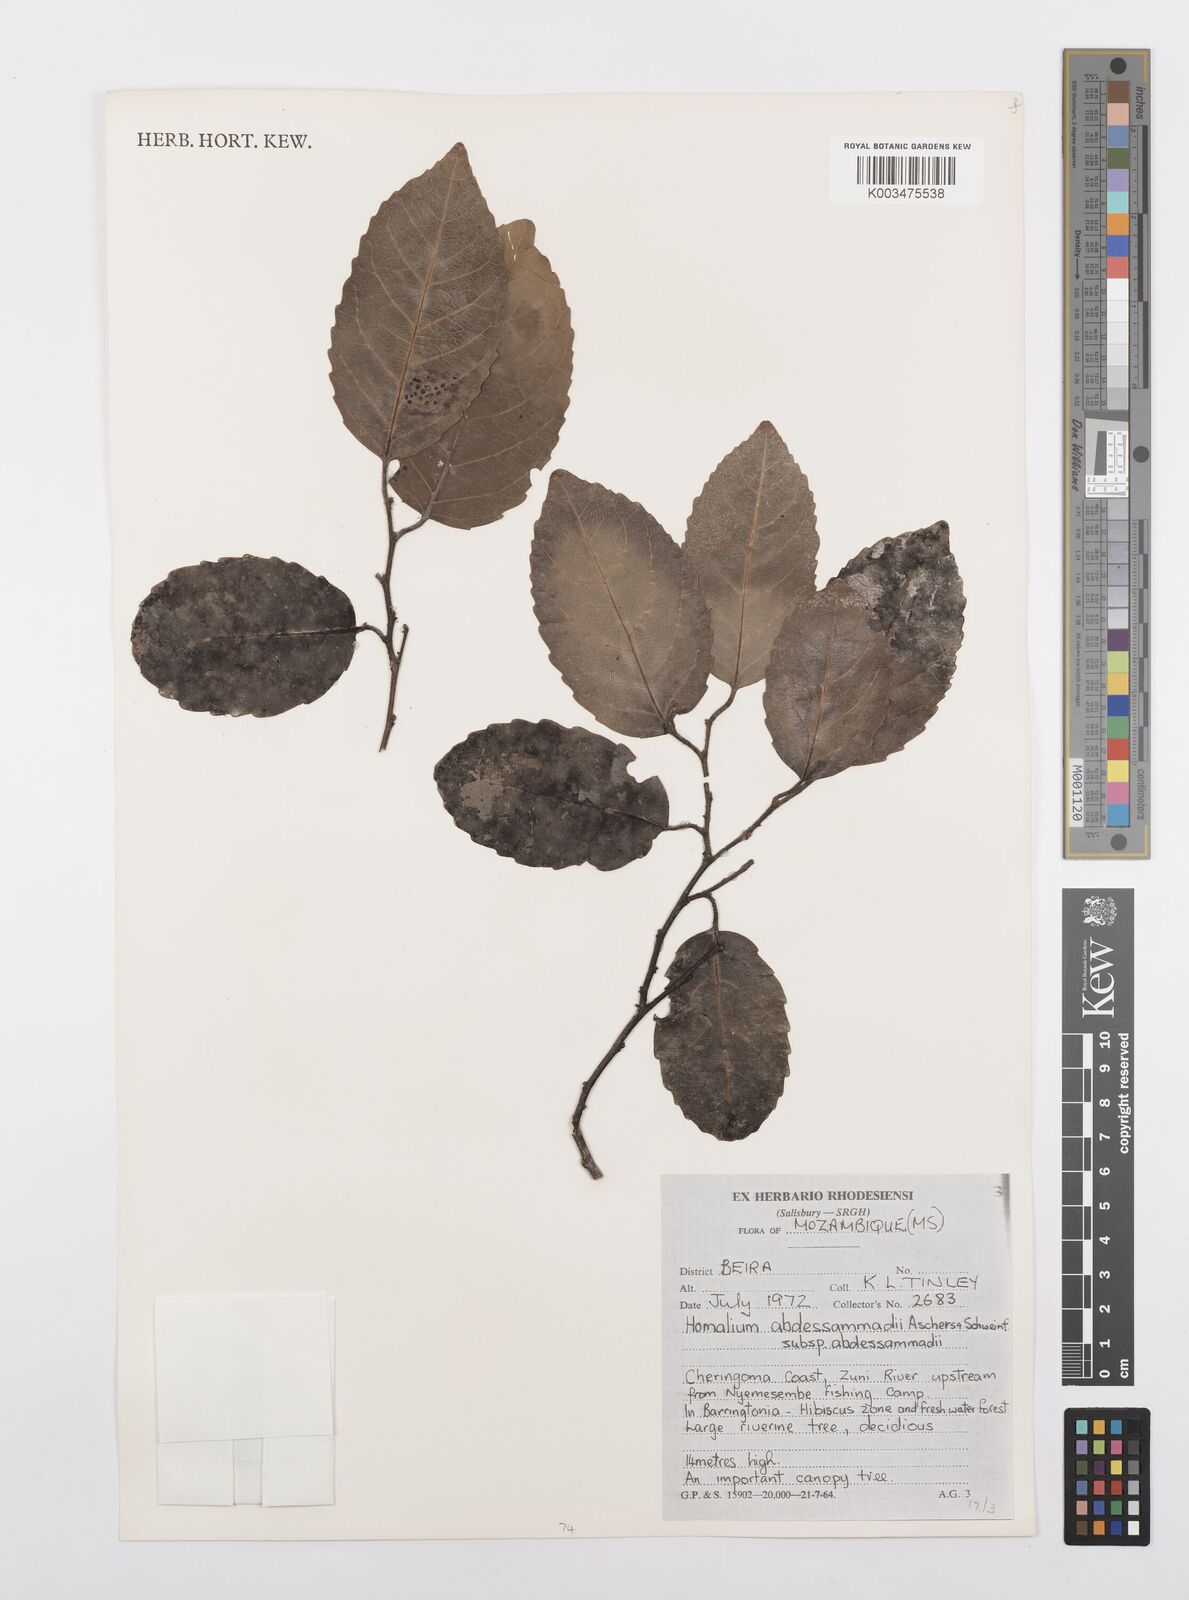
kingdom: Plantae
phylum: Tracheophyta
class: Magnoliopsida
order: Malpighiales
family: Salicaceae
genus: Homalium
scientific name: Homalium abdessammadii
